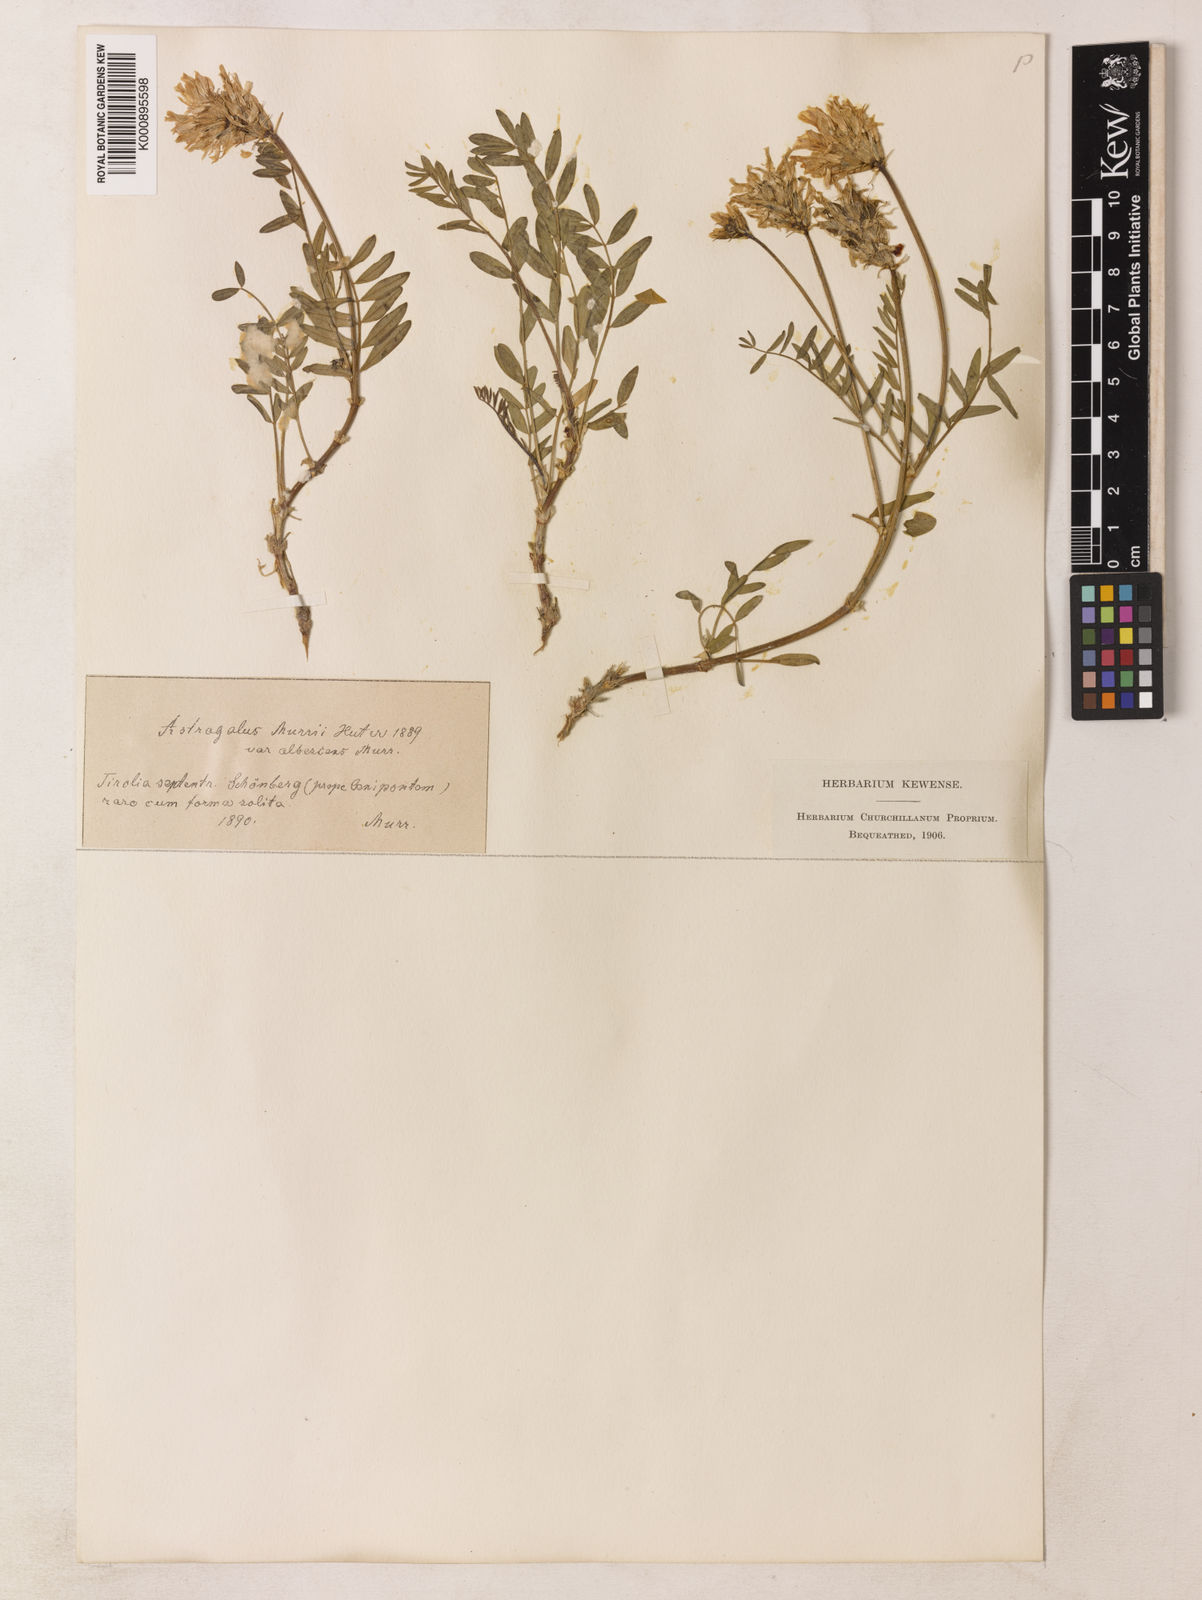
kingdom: Plantae
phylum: Tracheophyta
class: Magnoliopsida
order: Fabales
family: Fabaceae
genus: Astragalus
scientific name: Astragalus leontinus
